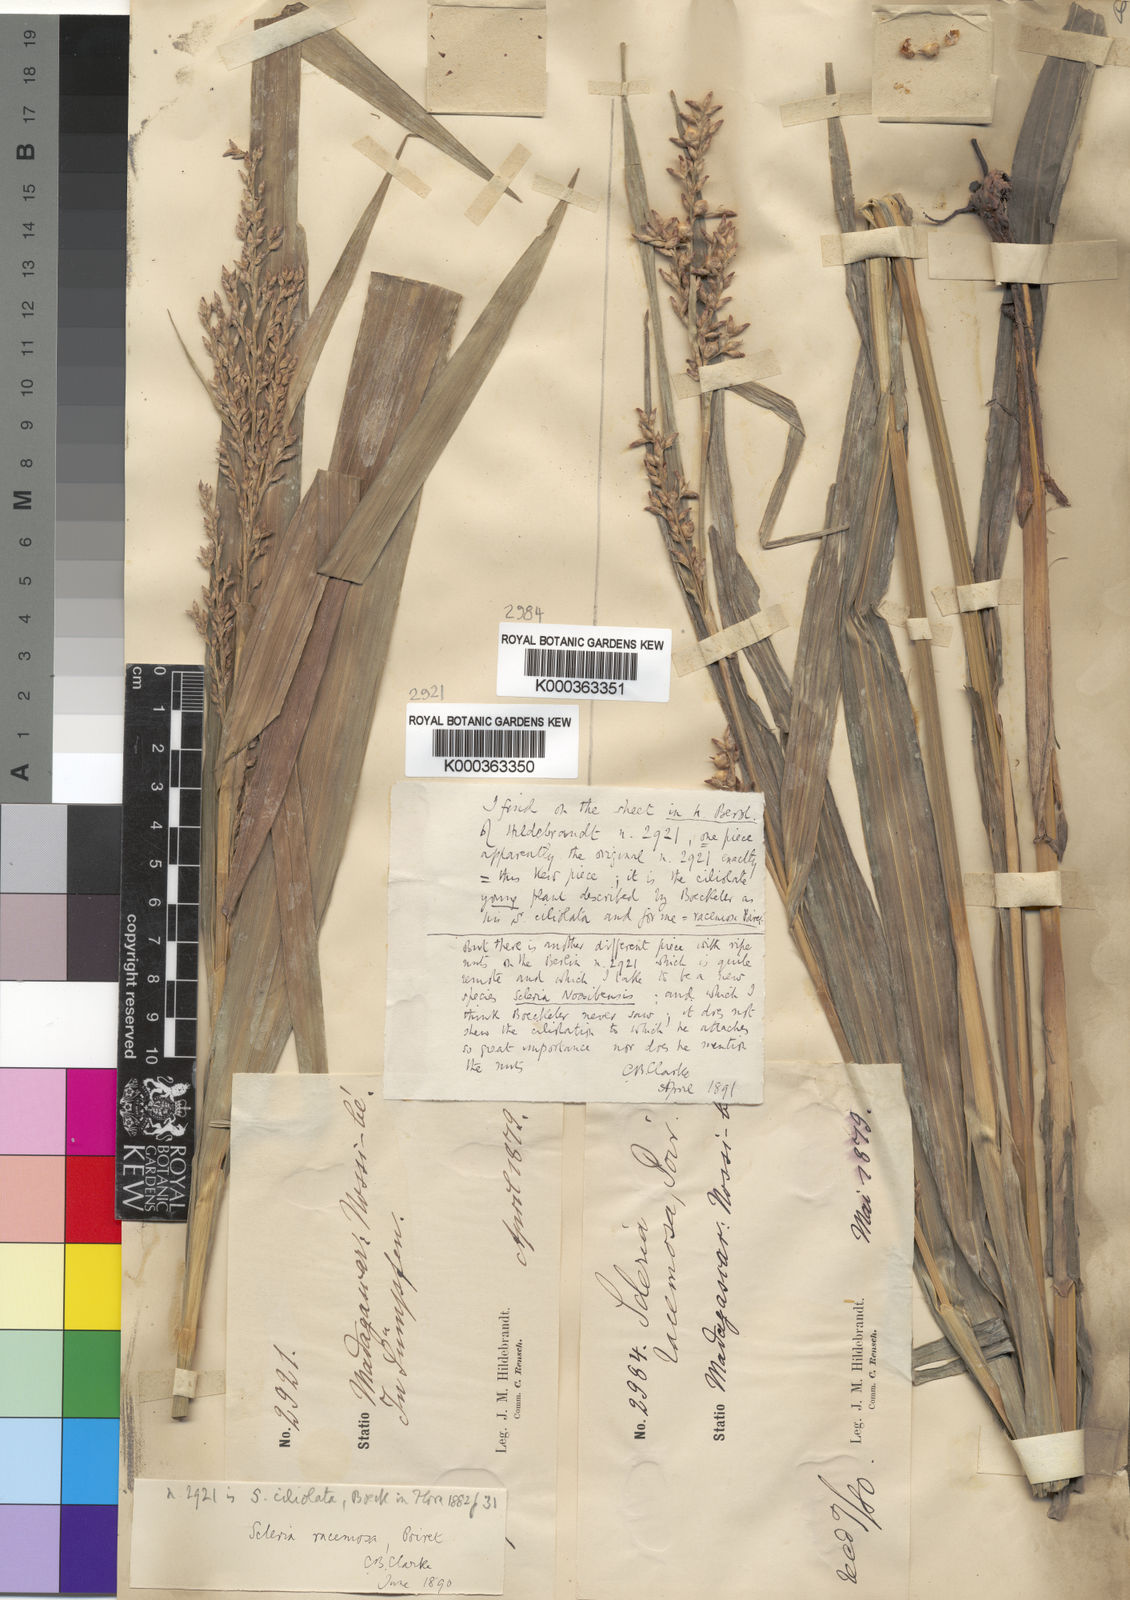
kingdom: Plantae
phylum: Tracheophyta
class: Liliopsida
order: Poales
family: Cyperaceae
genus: Scleria
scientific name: Scleria racemosa
